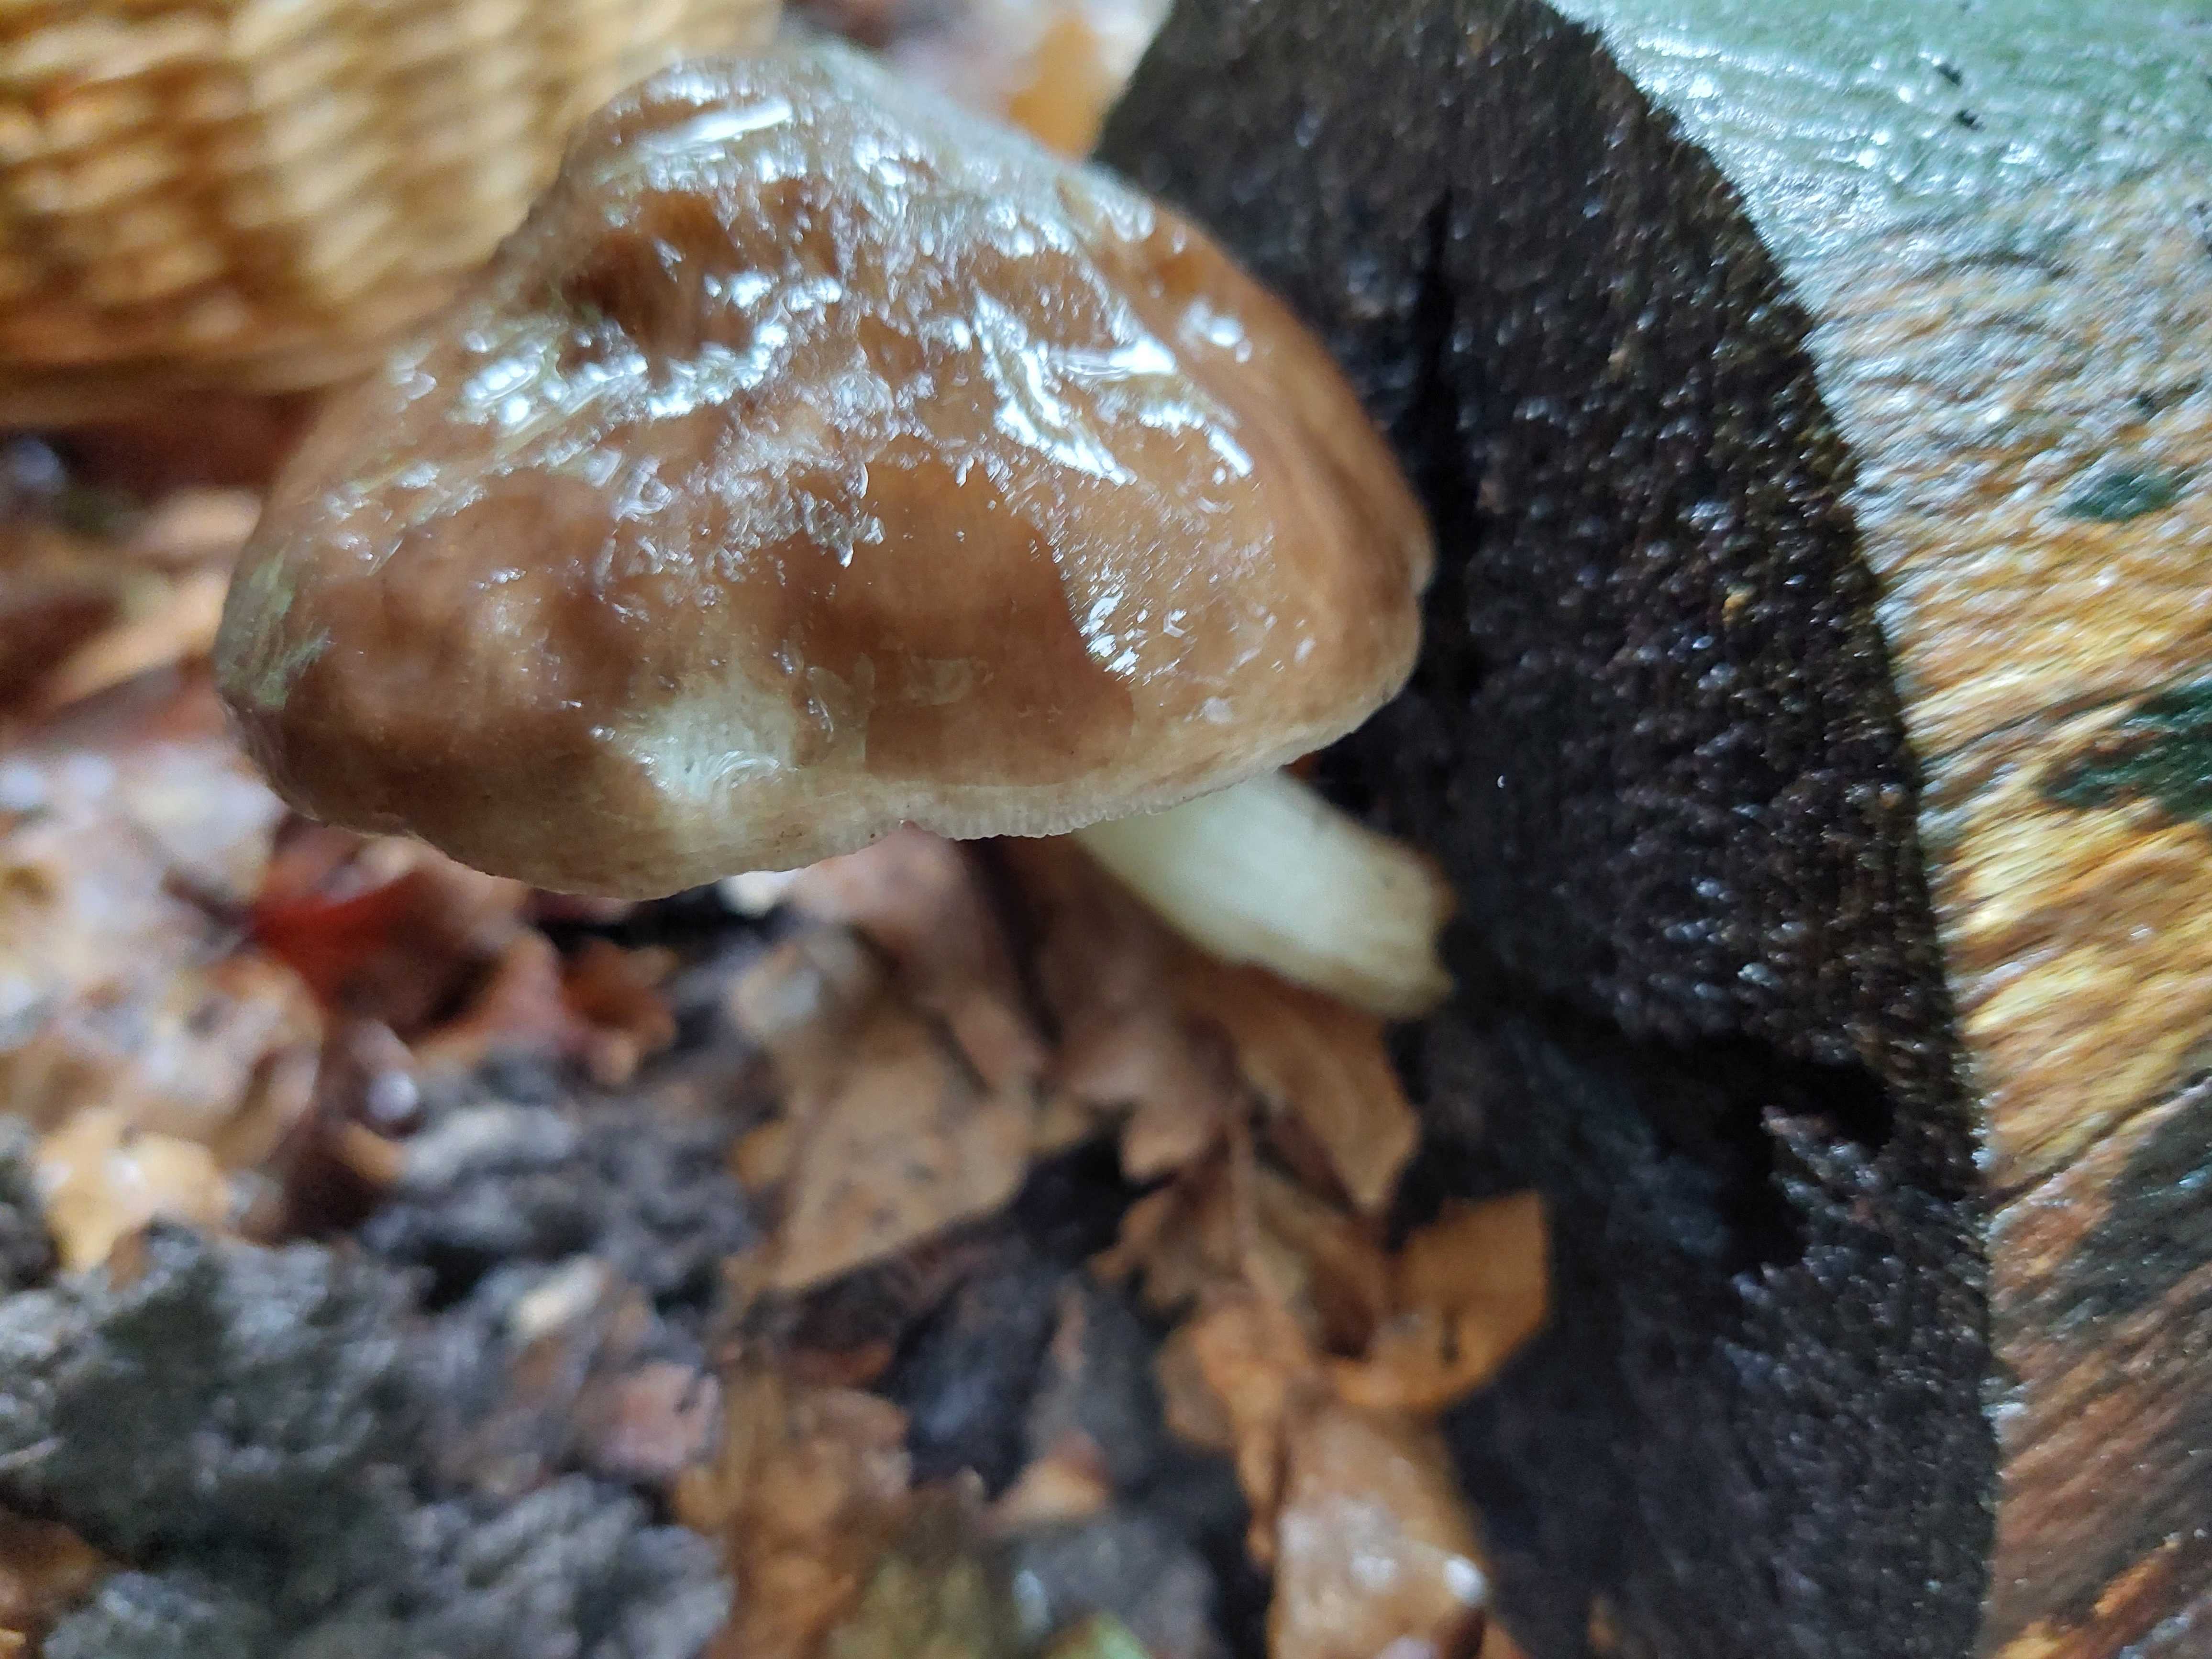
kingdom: Fungi
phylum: Basidiomycota
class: Agaricomycetes
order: Agaricales
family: Pluteaceae
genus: Pluteus
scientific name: Pluteus cervinus
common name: sodfarvet skærmhat
